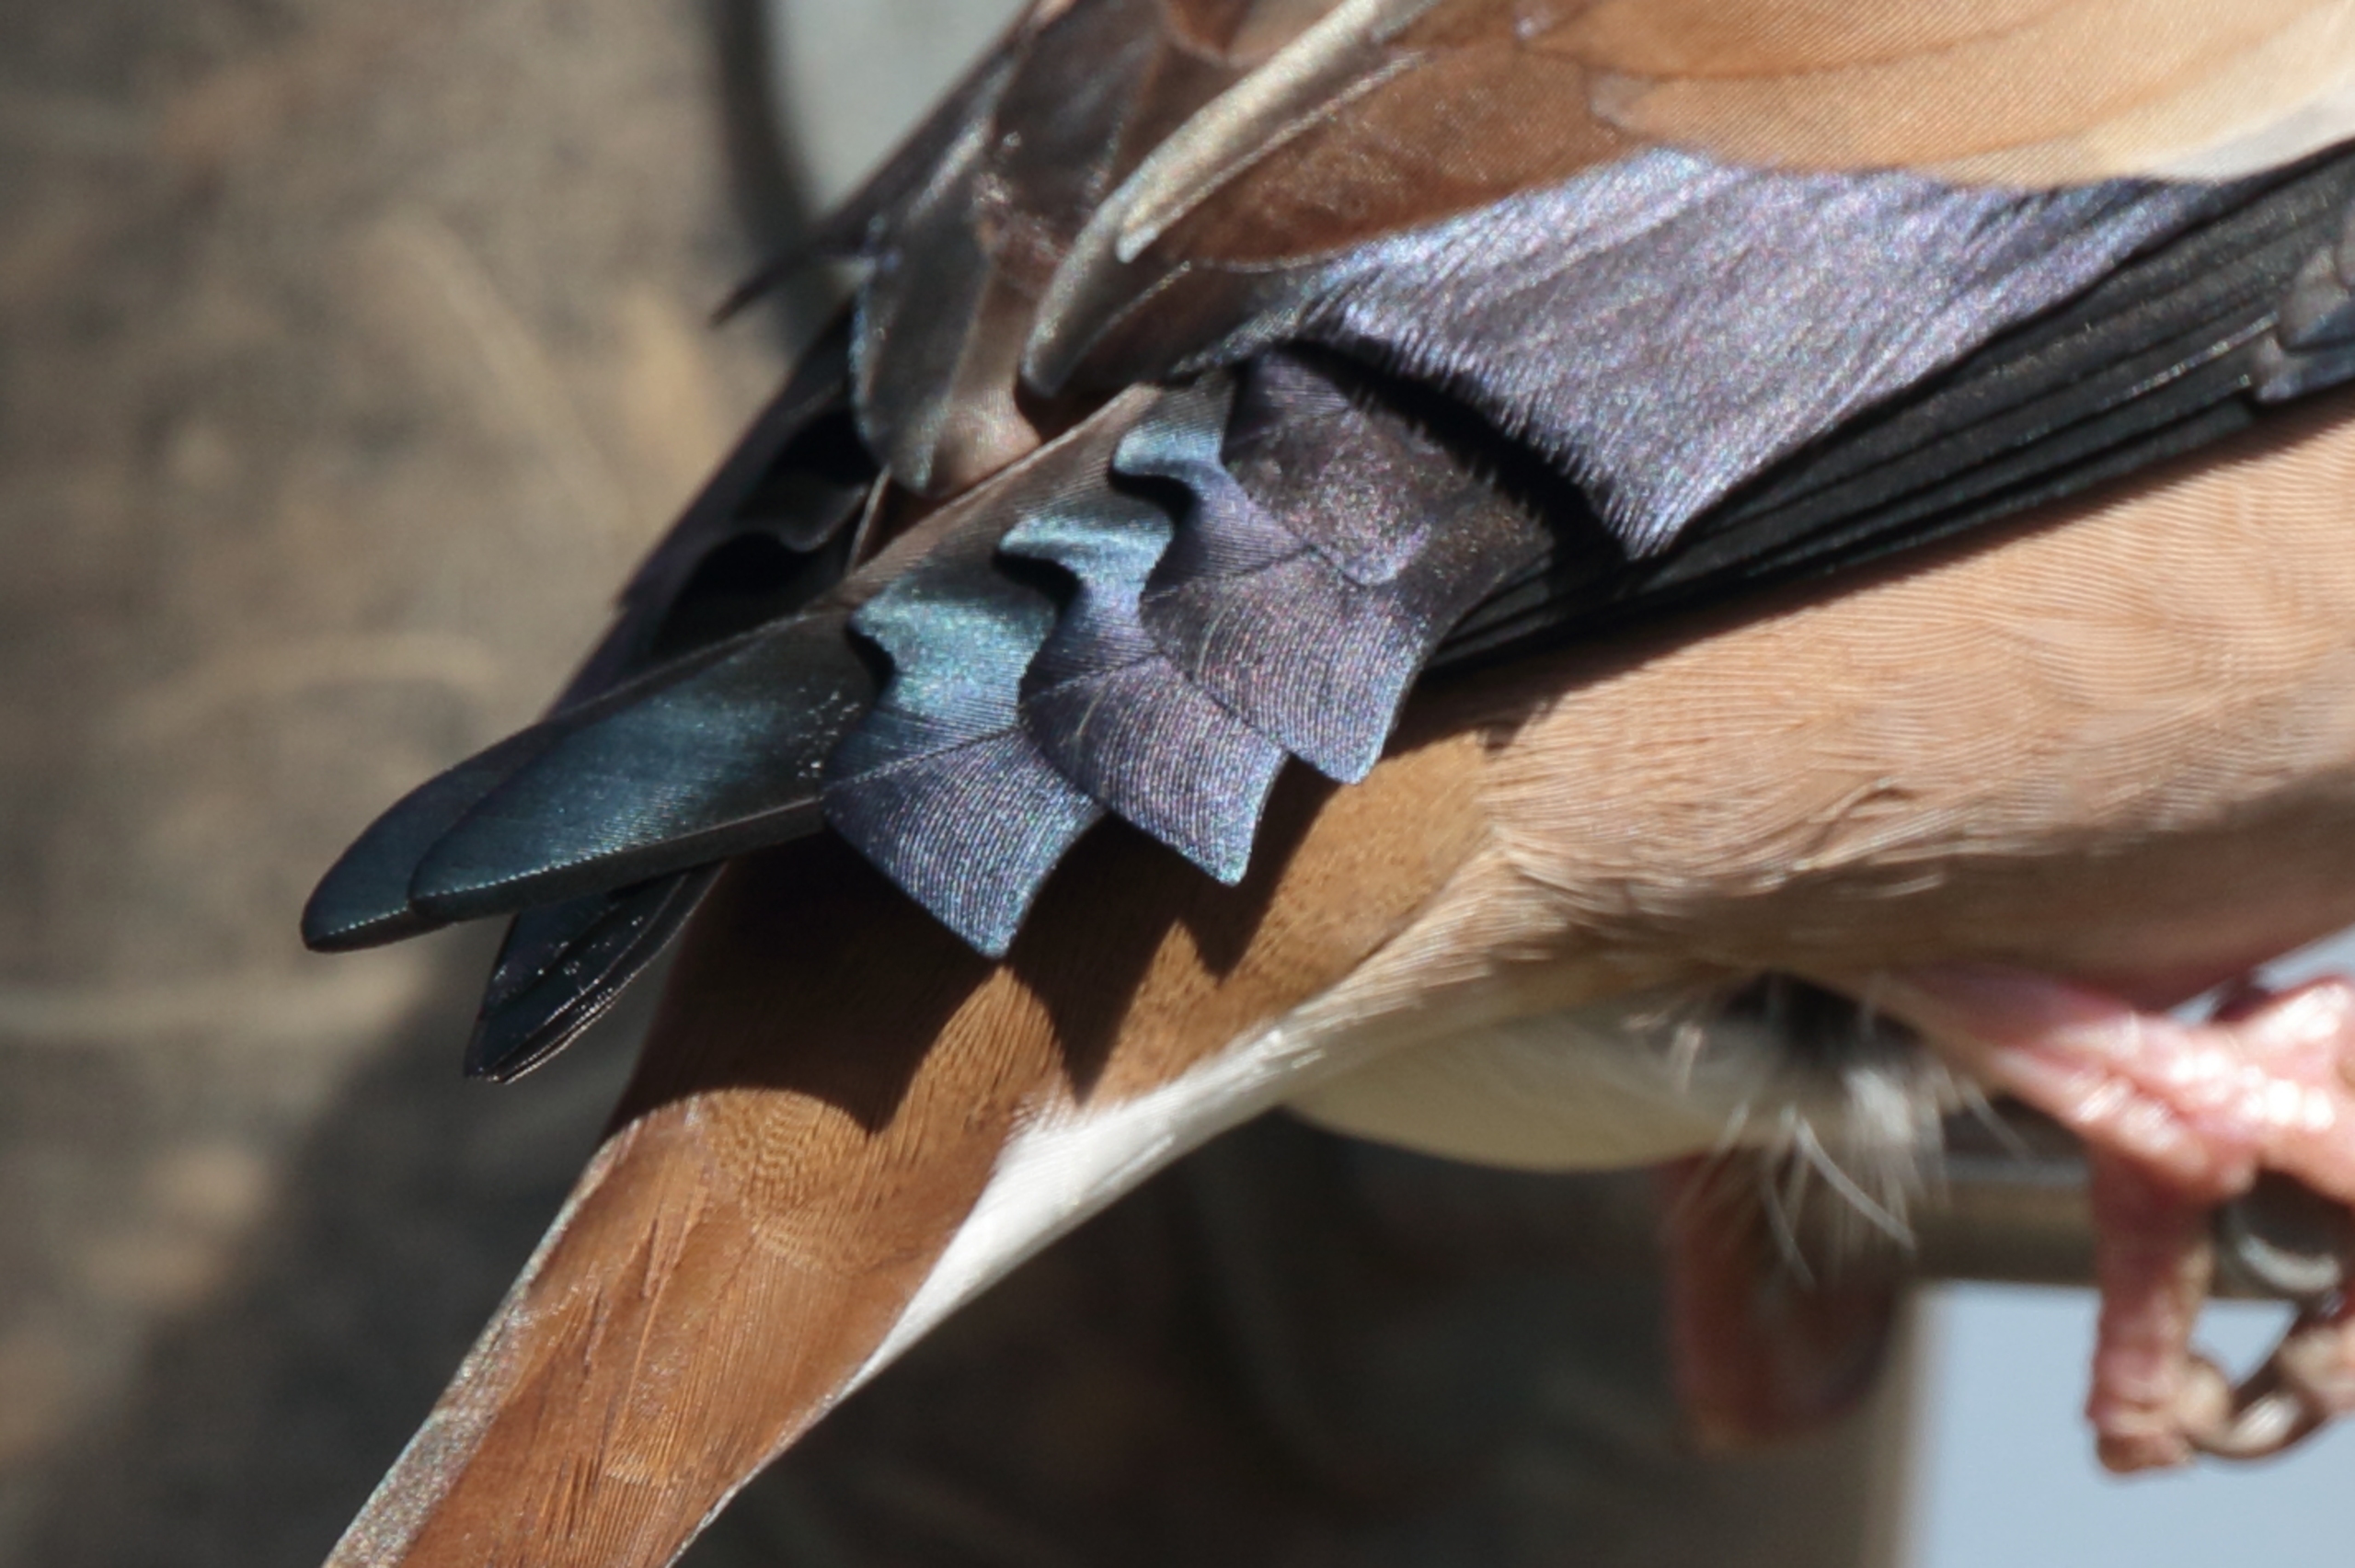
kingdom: Animalia
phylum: Chordata
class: Aves
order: Passeriformes
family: Fringillidae
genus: Coccothraustes
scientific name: Coccothraustes coccothraustes
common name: Kernebider
